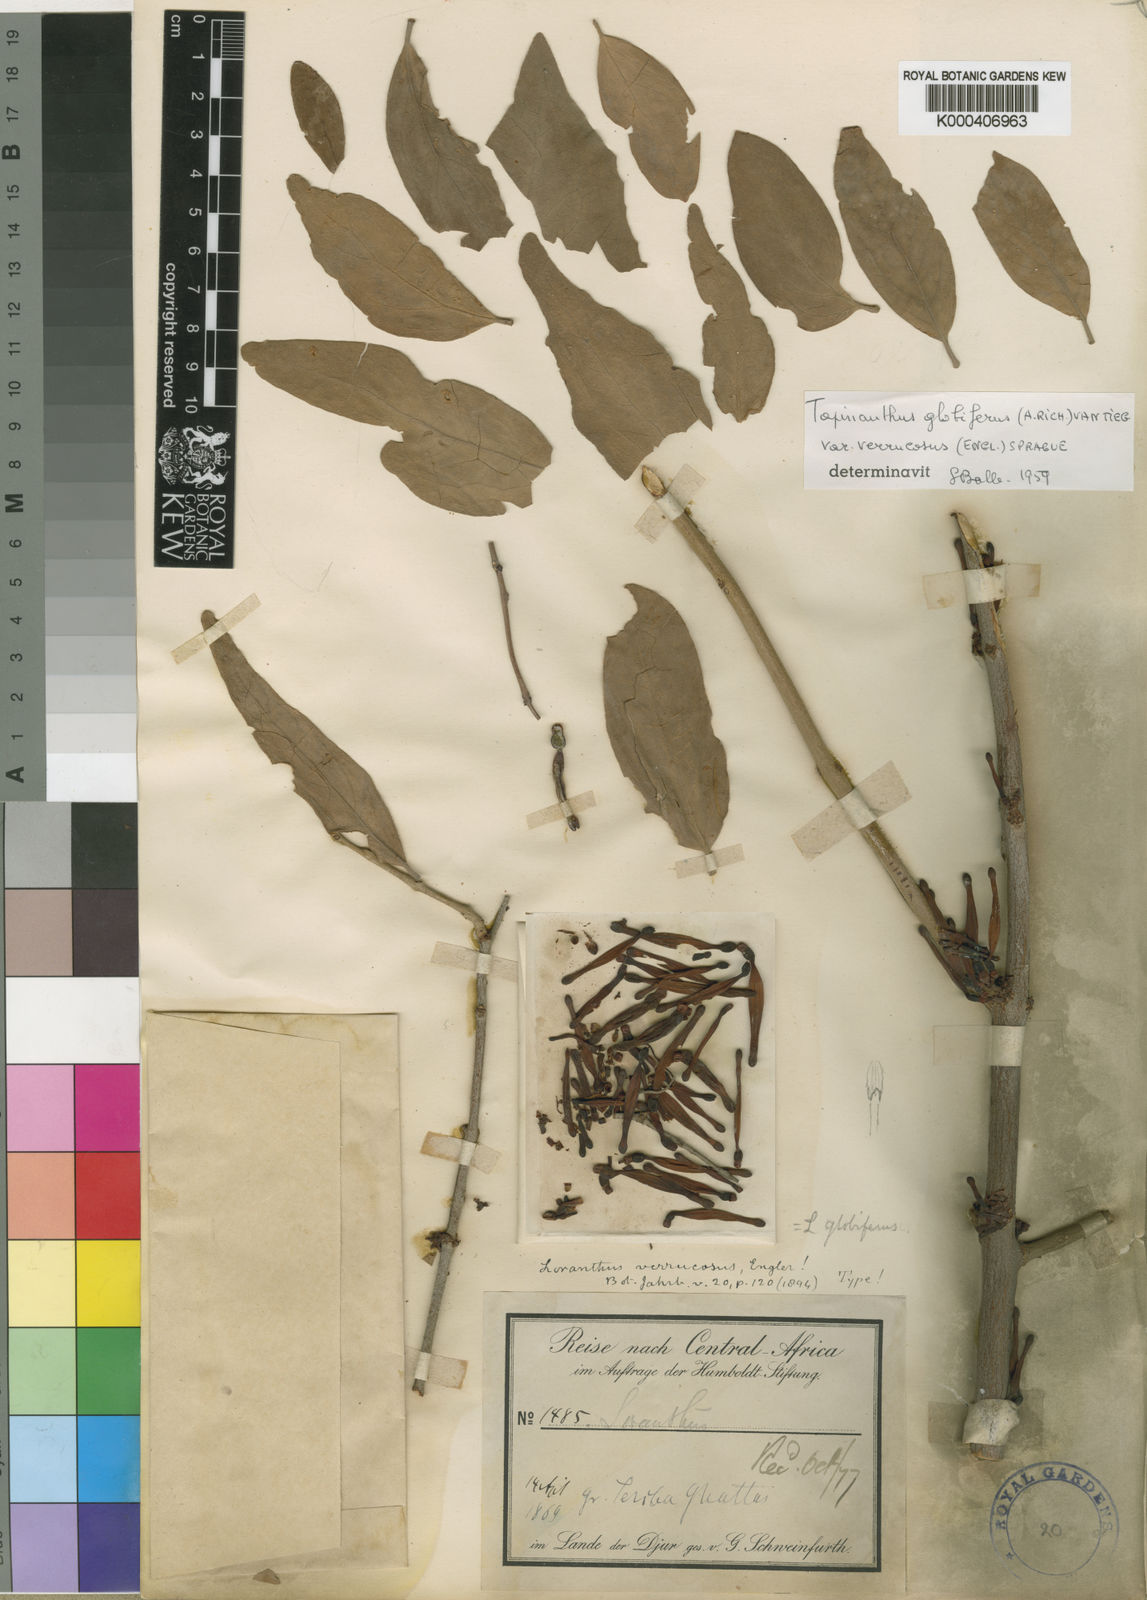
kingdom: Plantae
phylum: Tracheophyta
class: Magnoliopsida
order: Santalales
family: Loranthaceae
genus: Tapinanthus
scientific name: Tapinanthus
